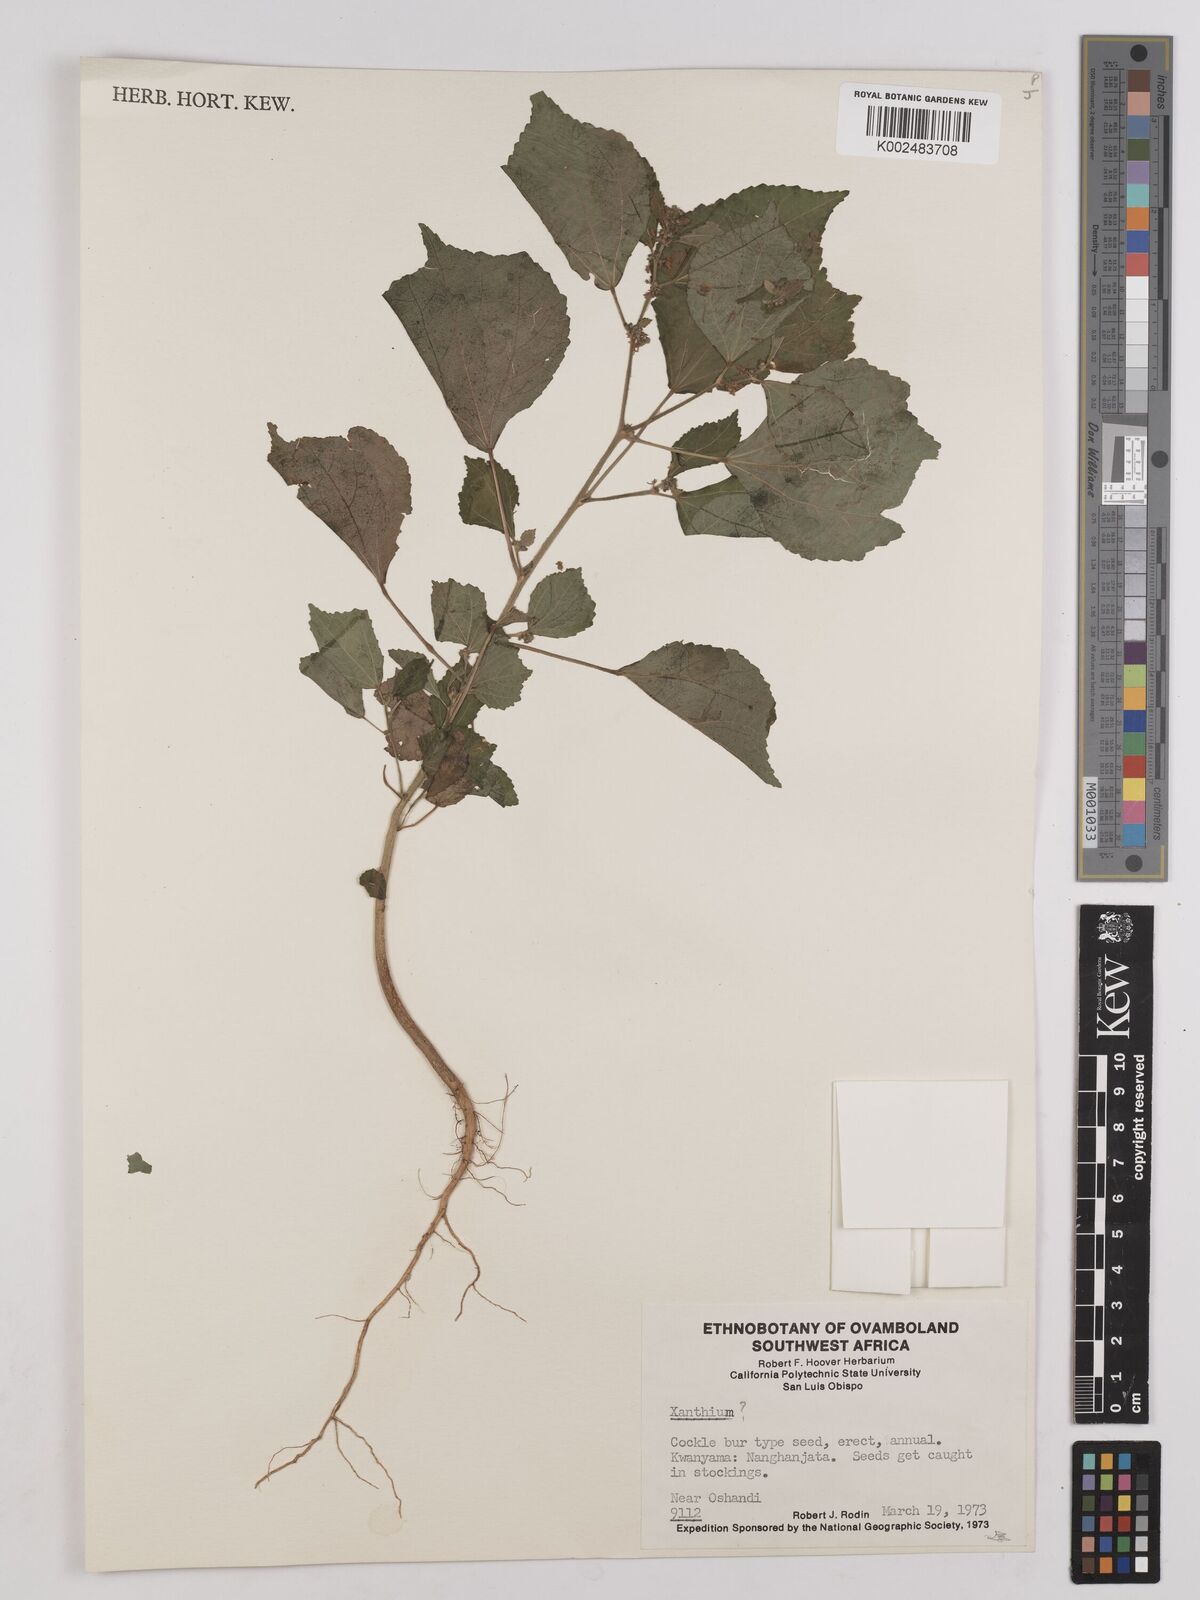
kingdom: Plantae
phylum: Tracheophyta
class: Magnoliopsida
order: Asterales
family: Asteraceae
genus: Xanthium
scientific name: Xanthium
